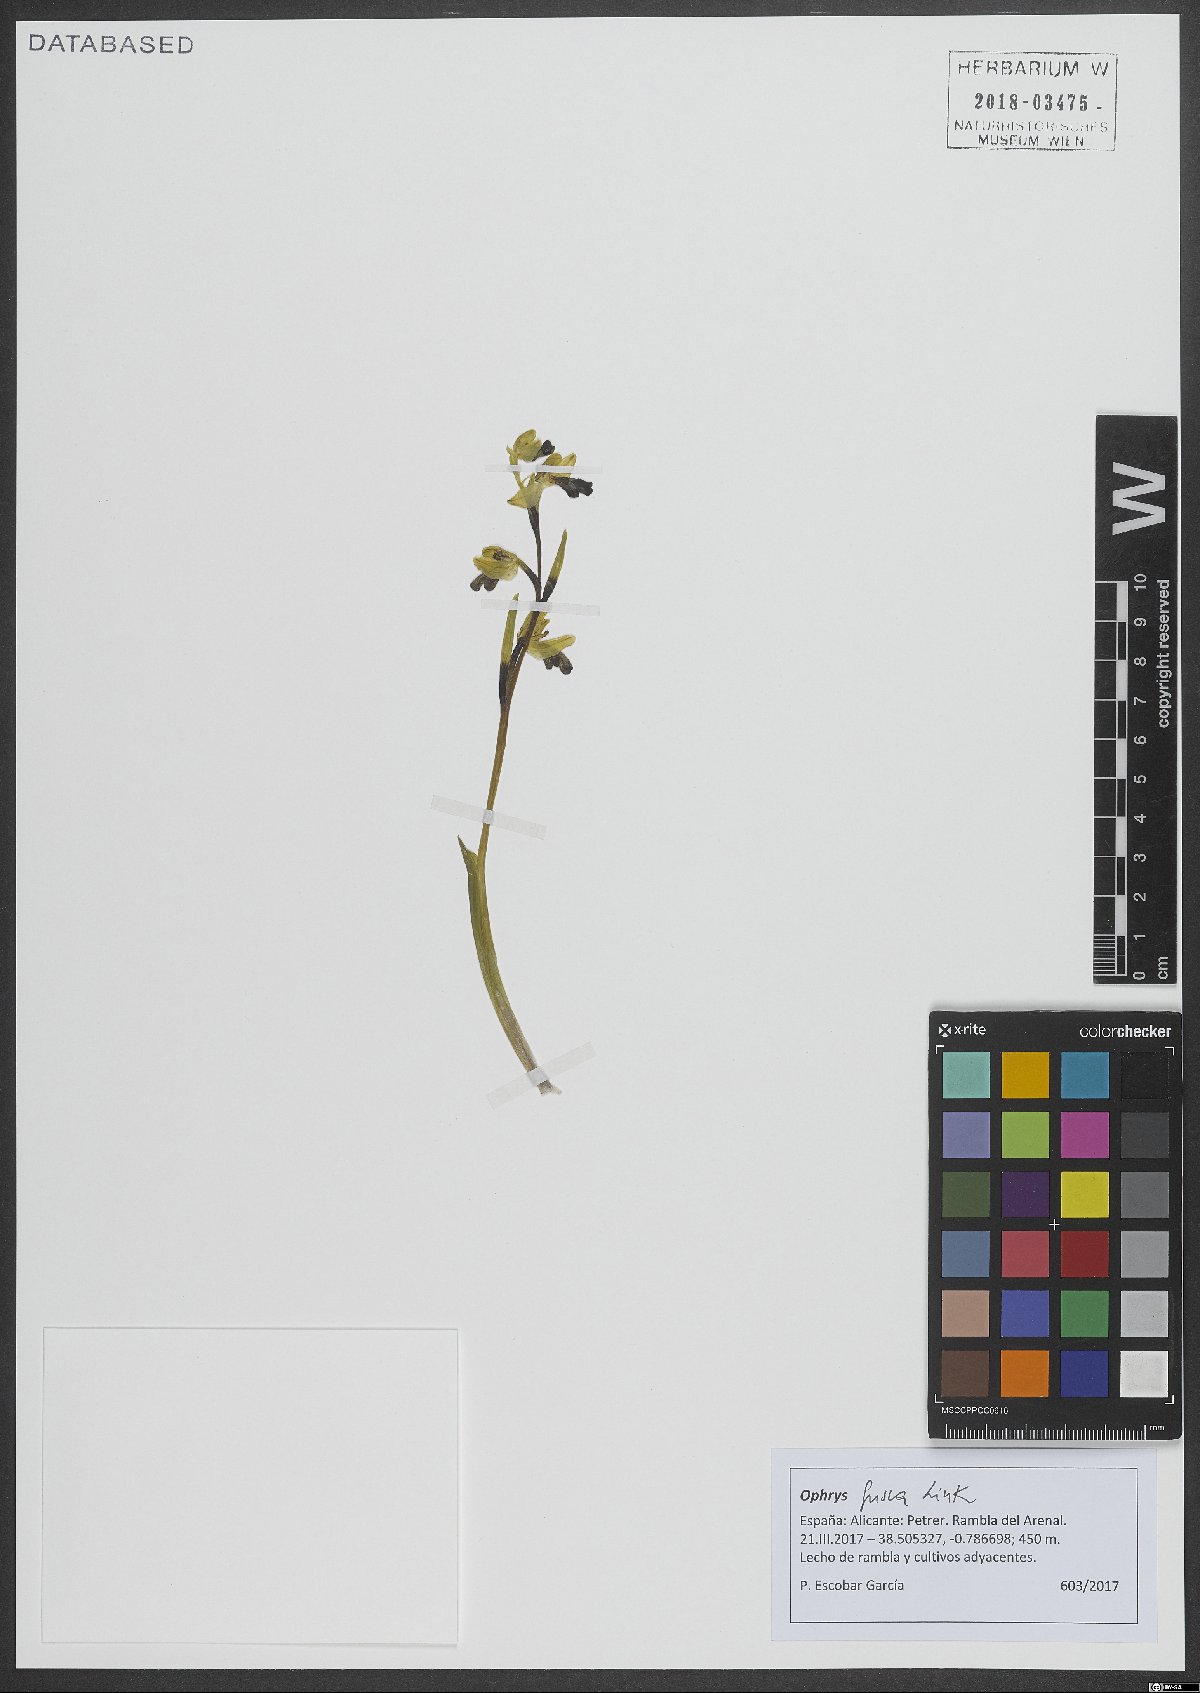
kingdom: Plantae
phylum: Tracheophyta
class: Liliopsida
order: Asparagales
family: Orchidaceae
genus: Ophrys
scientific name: Ophrys fusca
